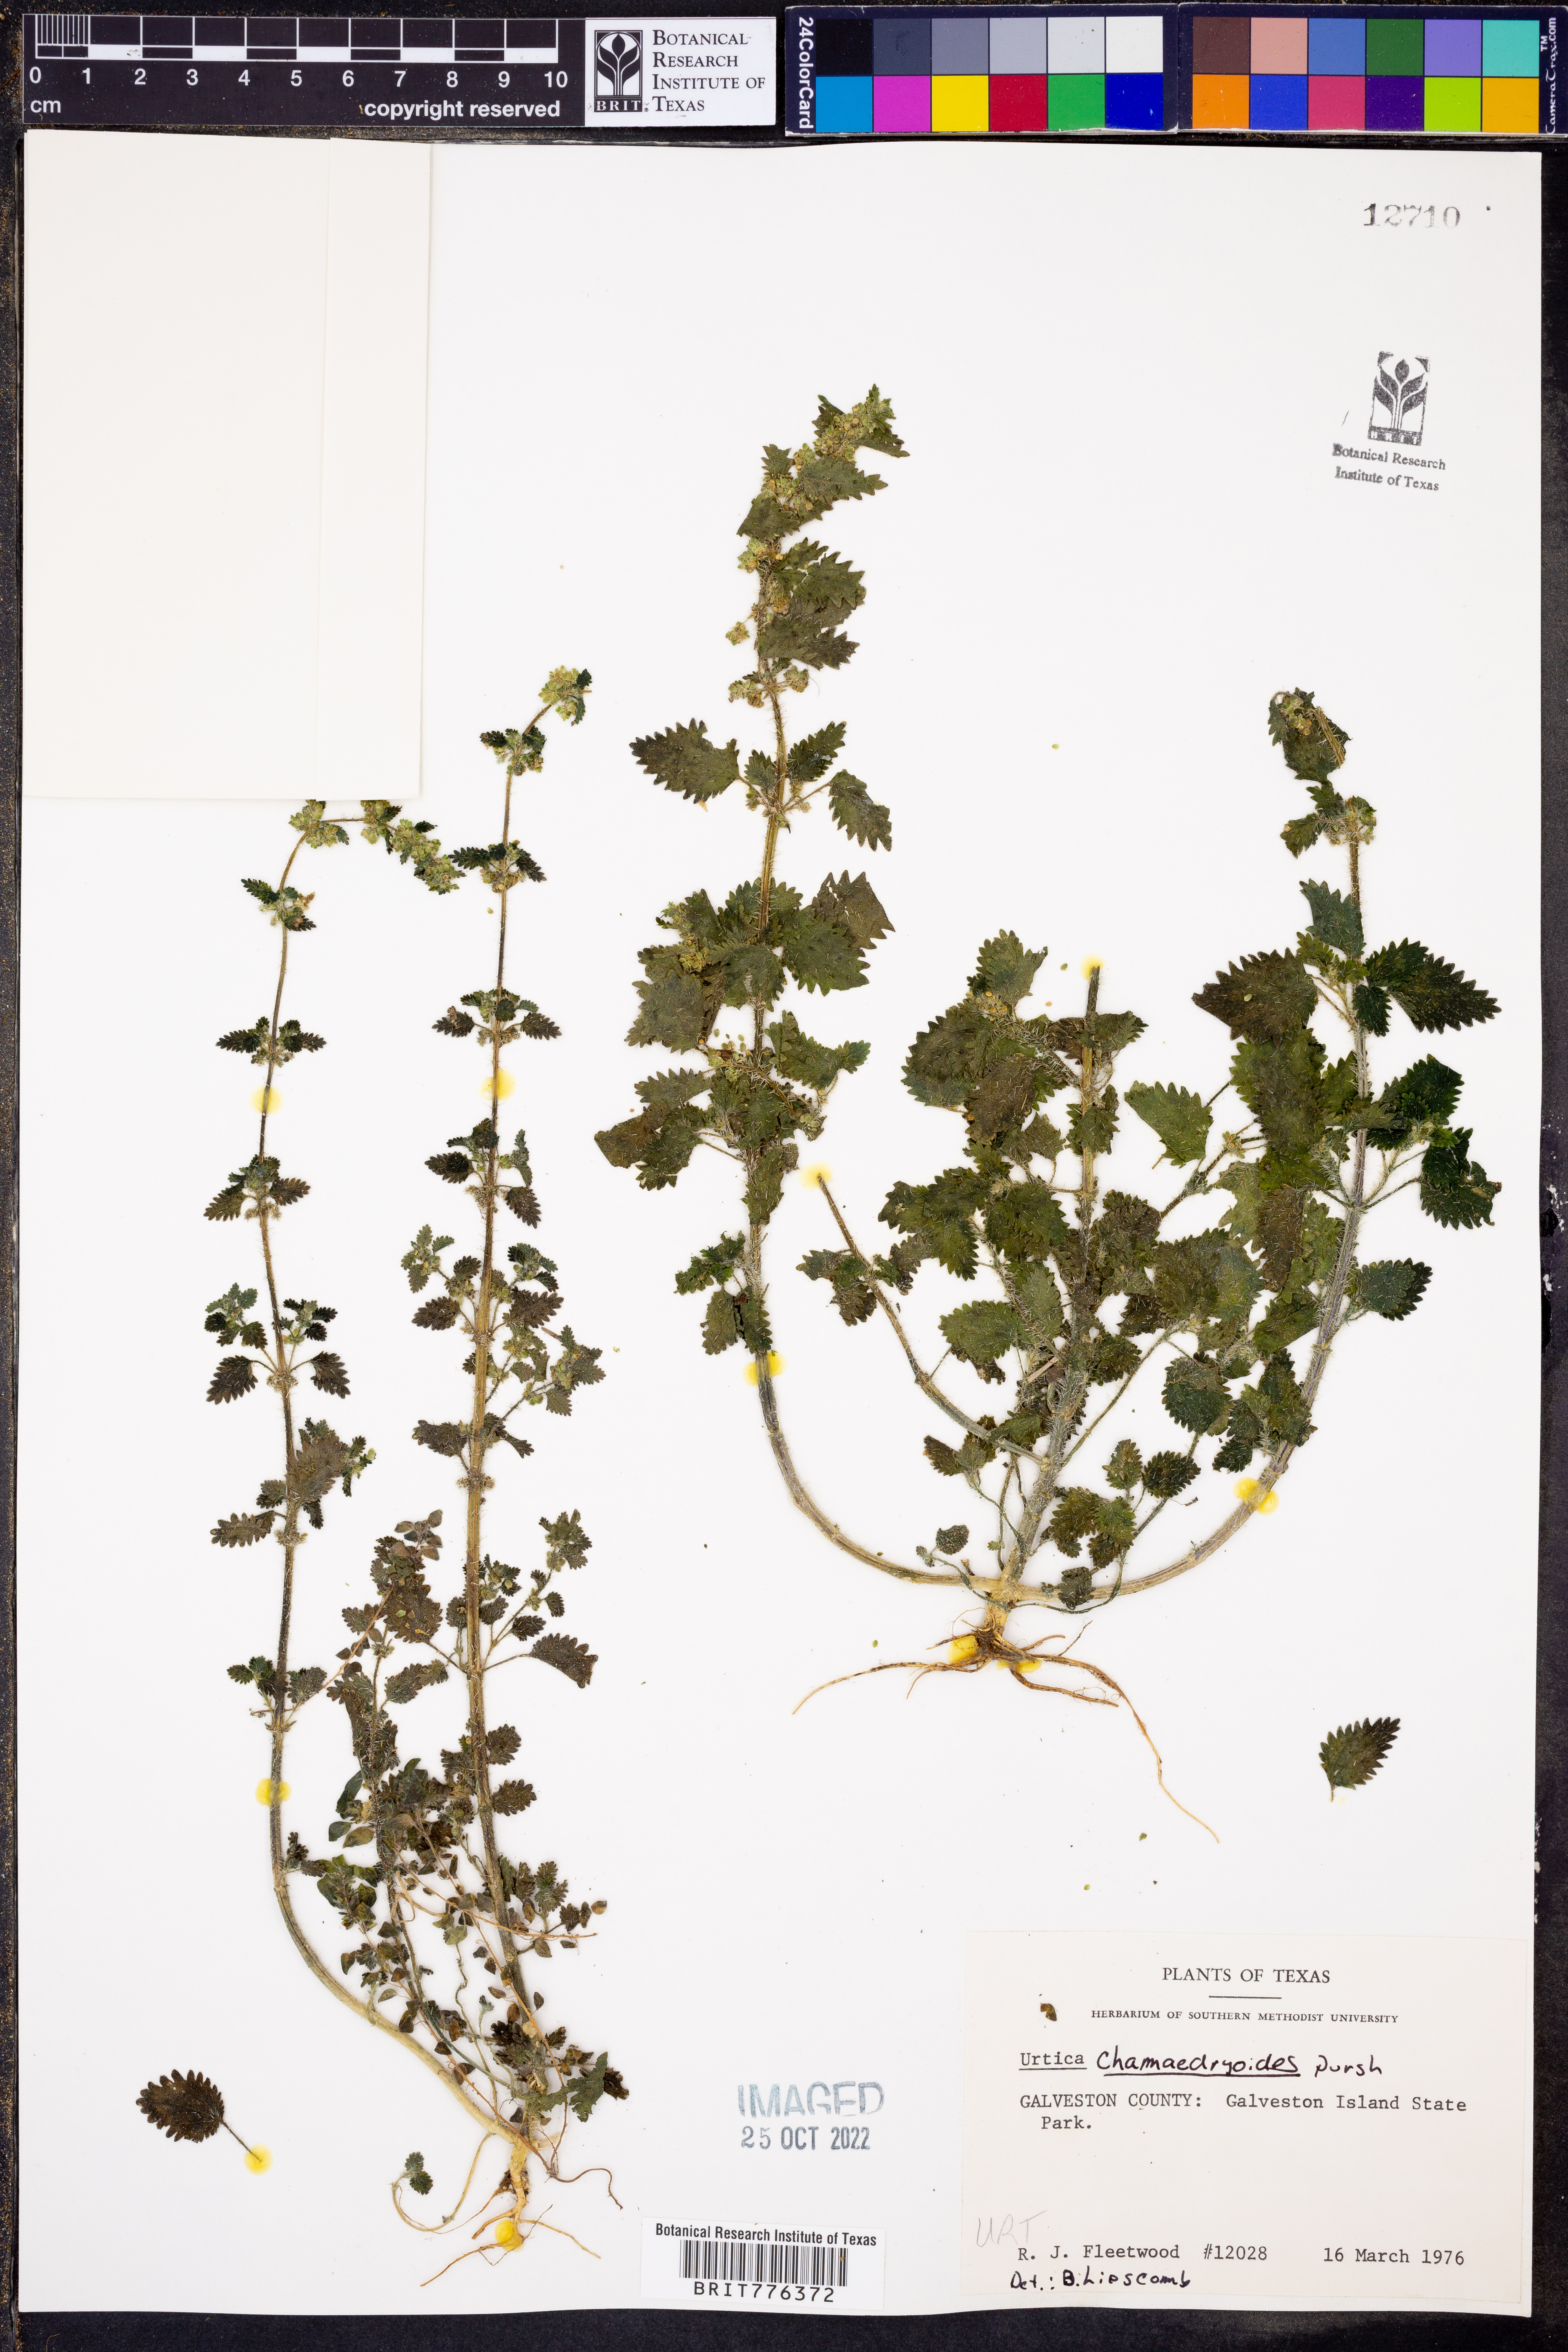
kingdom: Plantae
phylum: Tracheophyta
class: Magnoliopsida
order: Rosales
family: Urticaceae
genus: Urtica
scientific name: Urtica chamaedryoides
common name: Heart-leaf nettle
